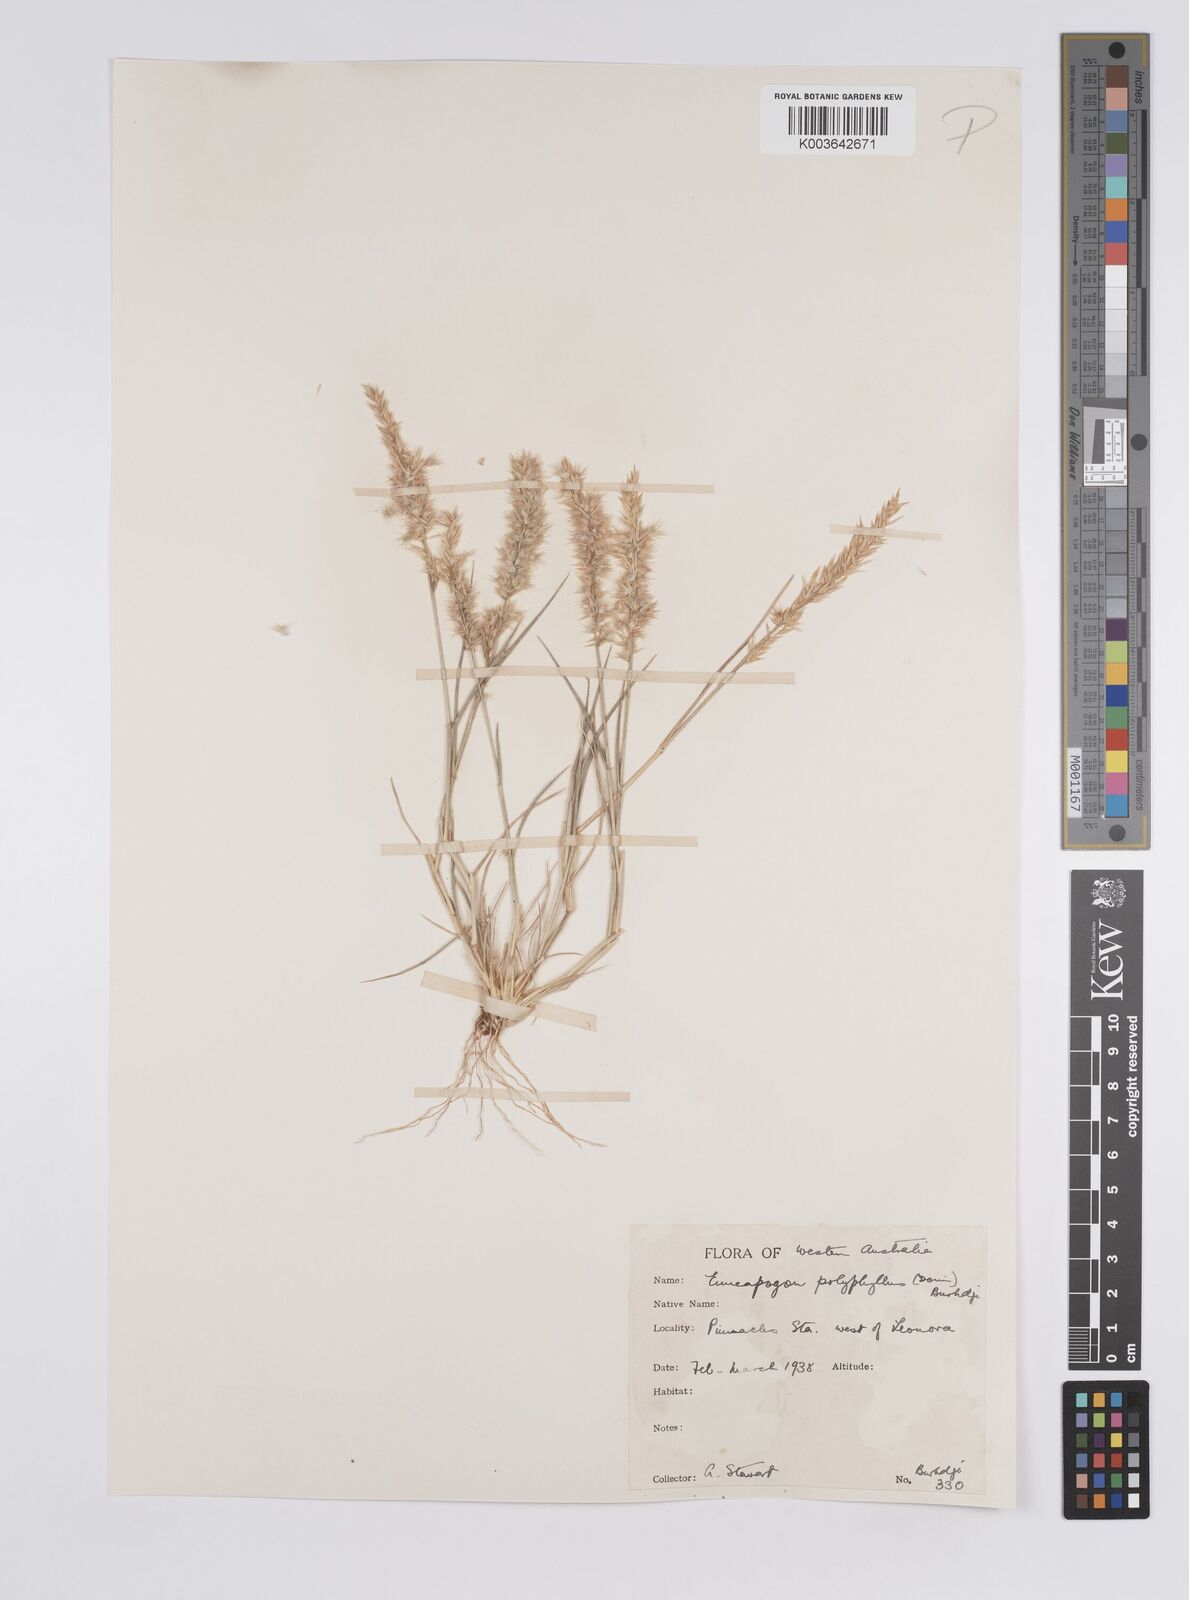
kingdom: Plantae
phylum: Tracheophyta
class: Liliopsida
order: Poales
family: Poaceae
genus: Enneapogon
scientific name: Enneapogon polyphyllus
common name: Leafy nineawn
